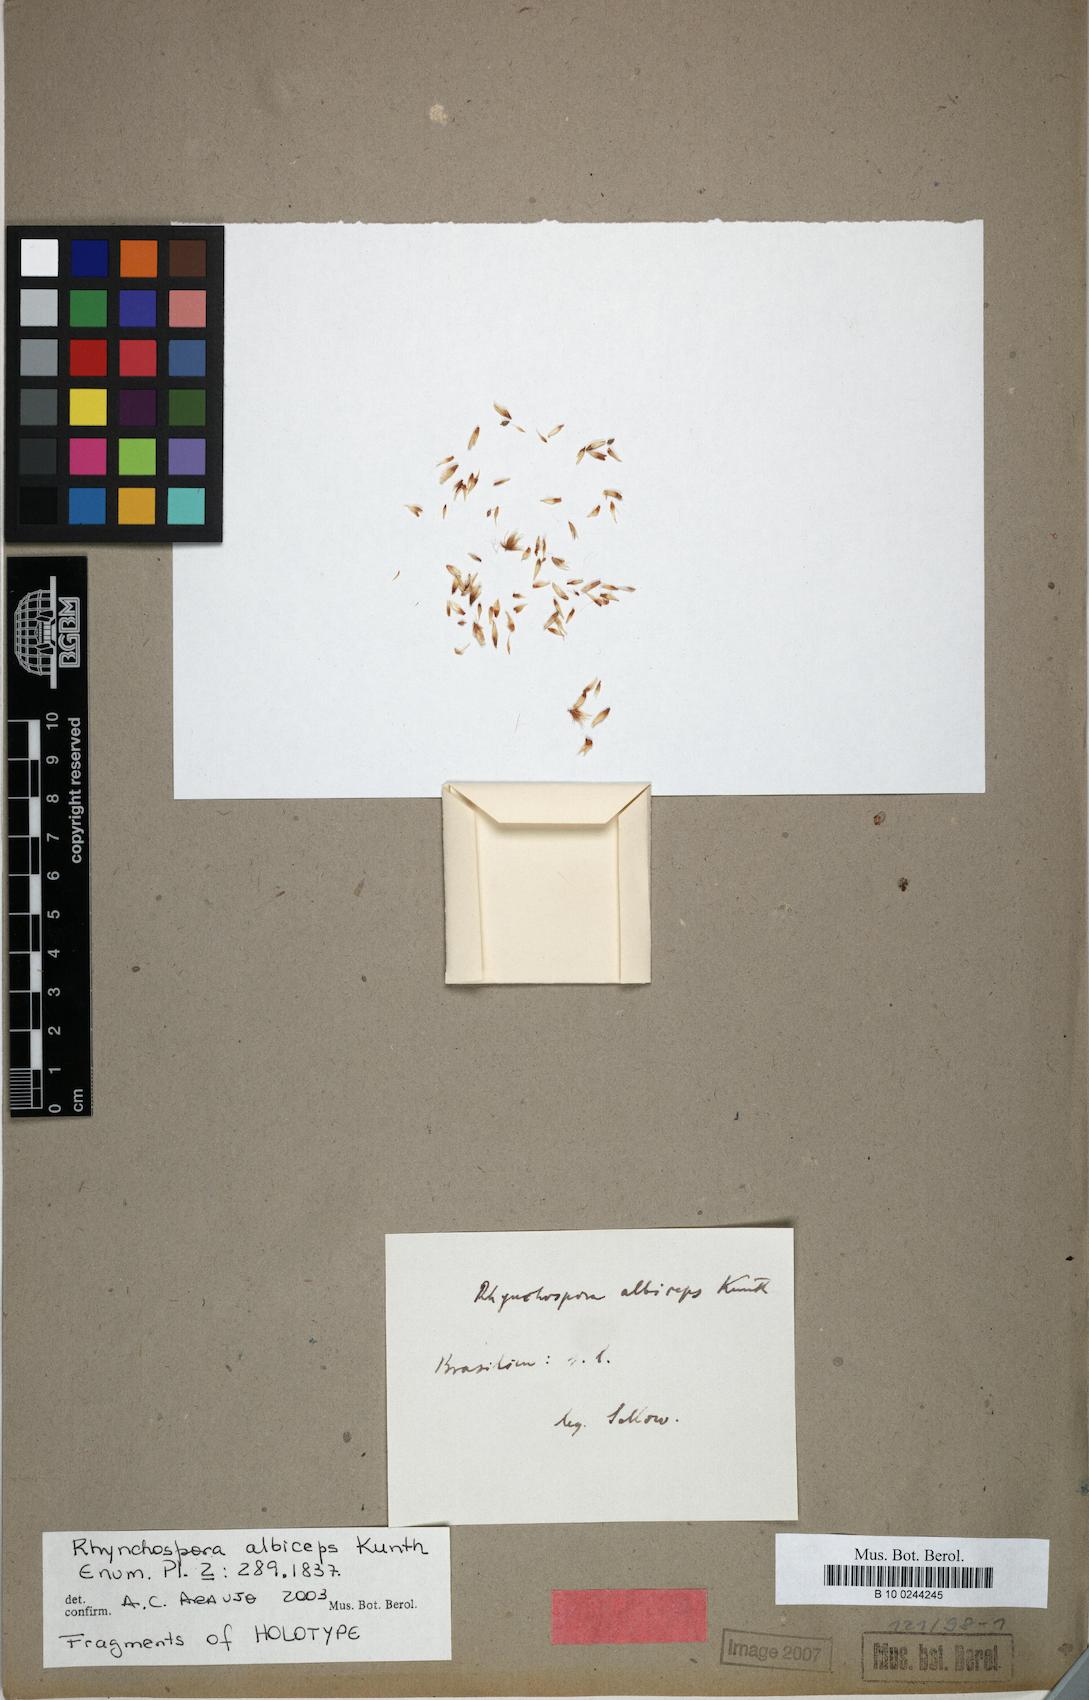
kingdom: Plantae
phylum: Tracheophyta
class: Liliopsida
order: Poales
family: Cyperaceae
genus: Rhynchospora
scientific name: Rhynchospora albiceps
